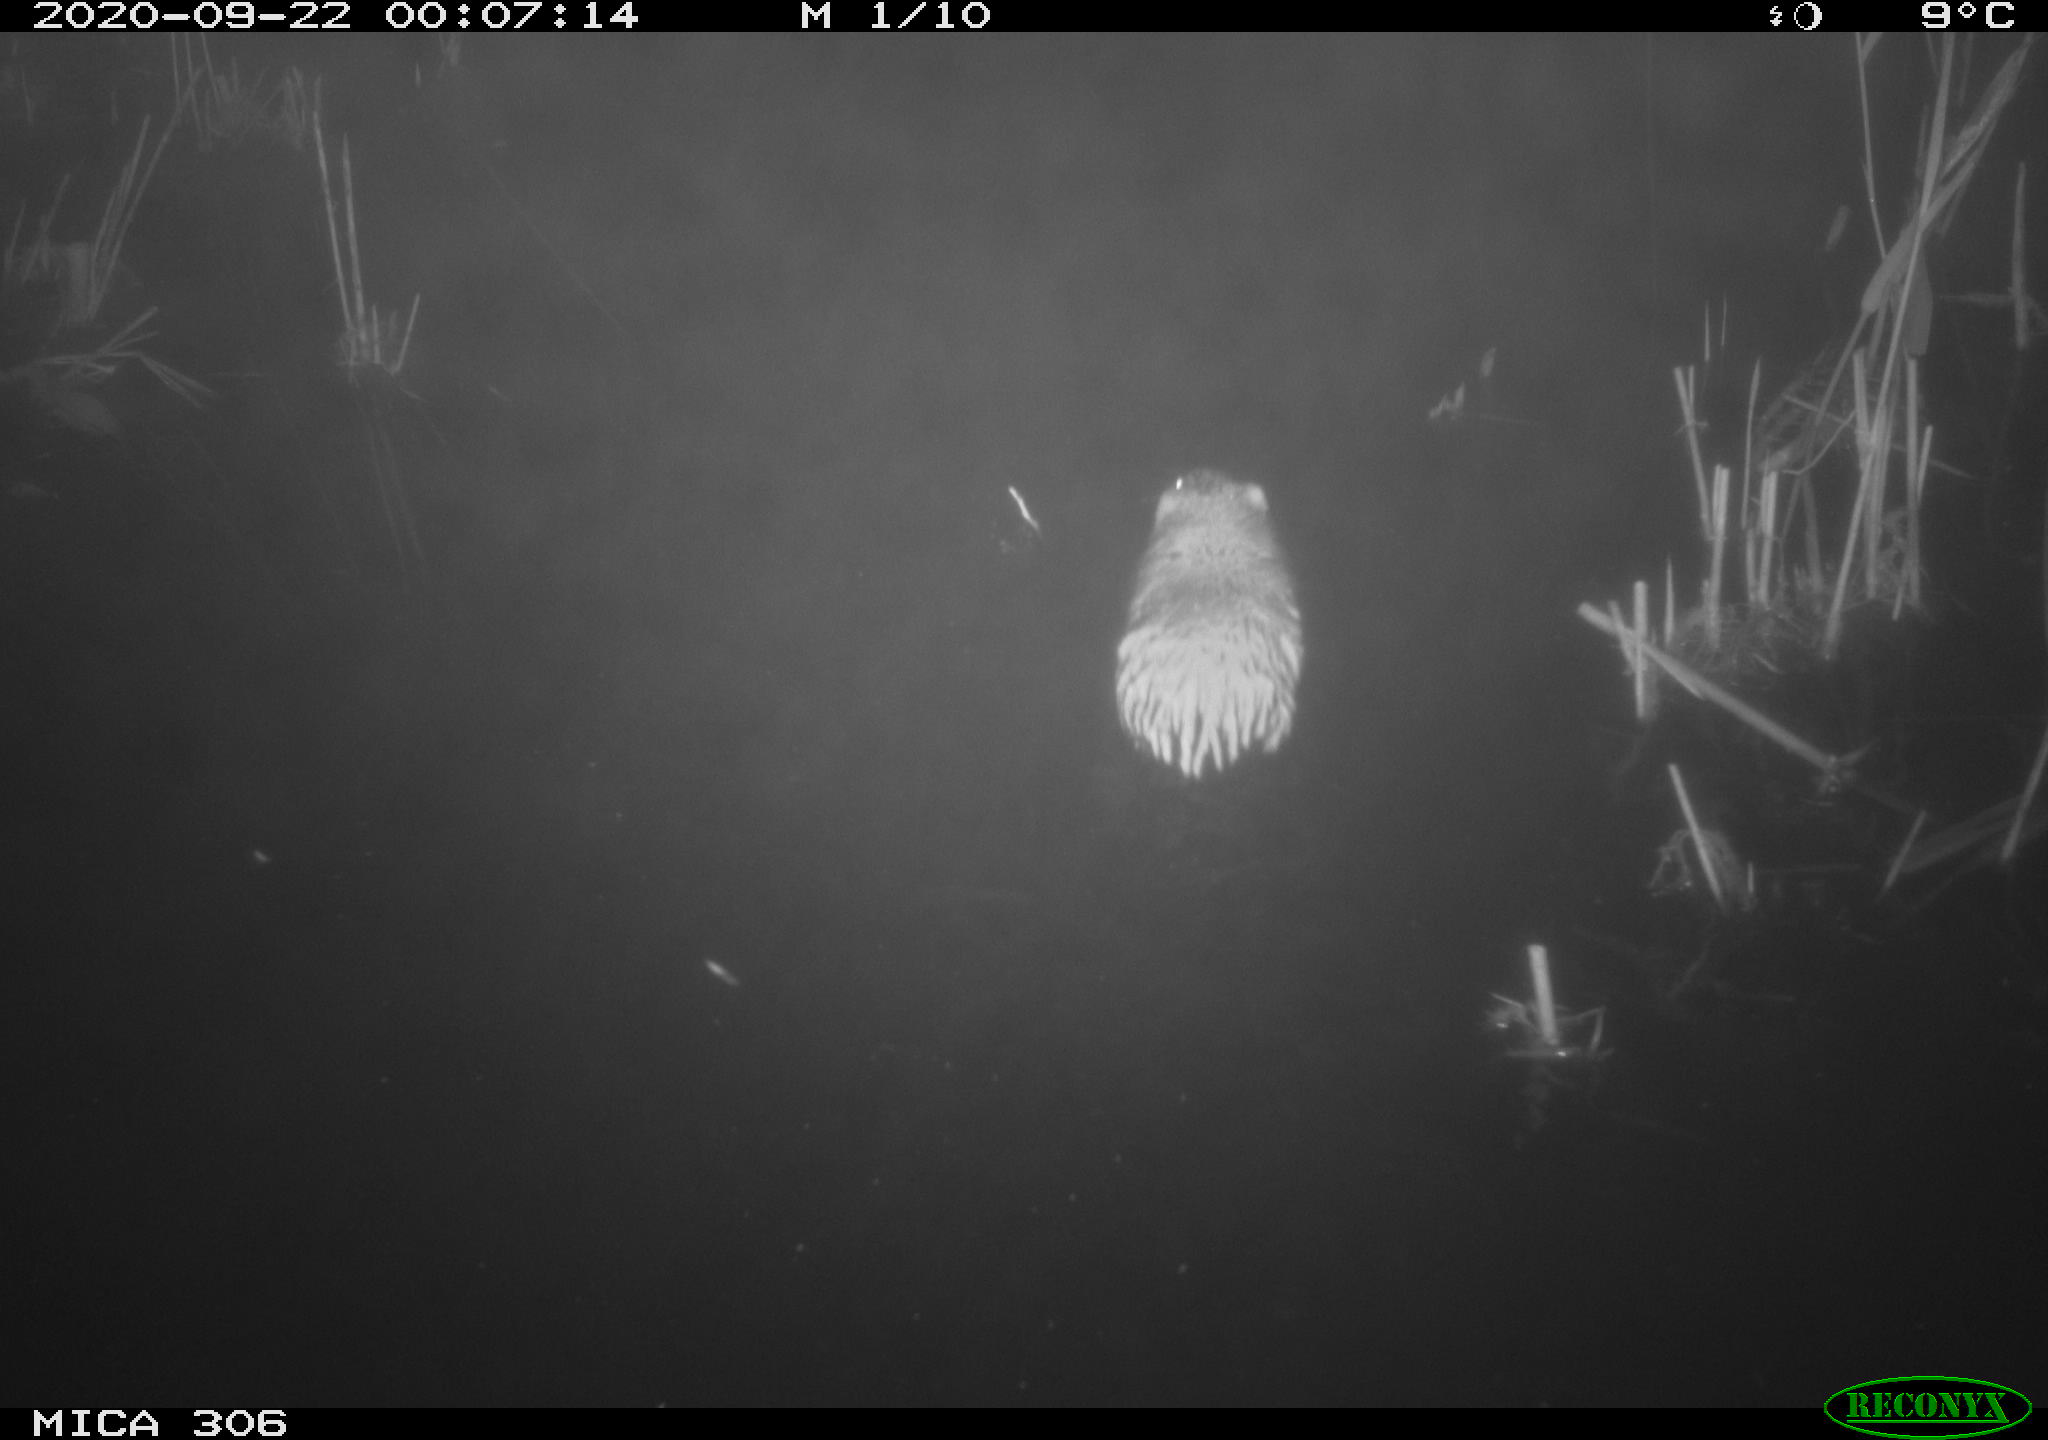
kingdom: Animalia
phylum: Chordata
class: Mammalia
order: Rodentia
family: Cricetidae
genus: Ondatra
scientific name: Ondatra zibethicus
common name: Muskrat
